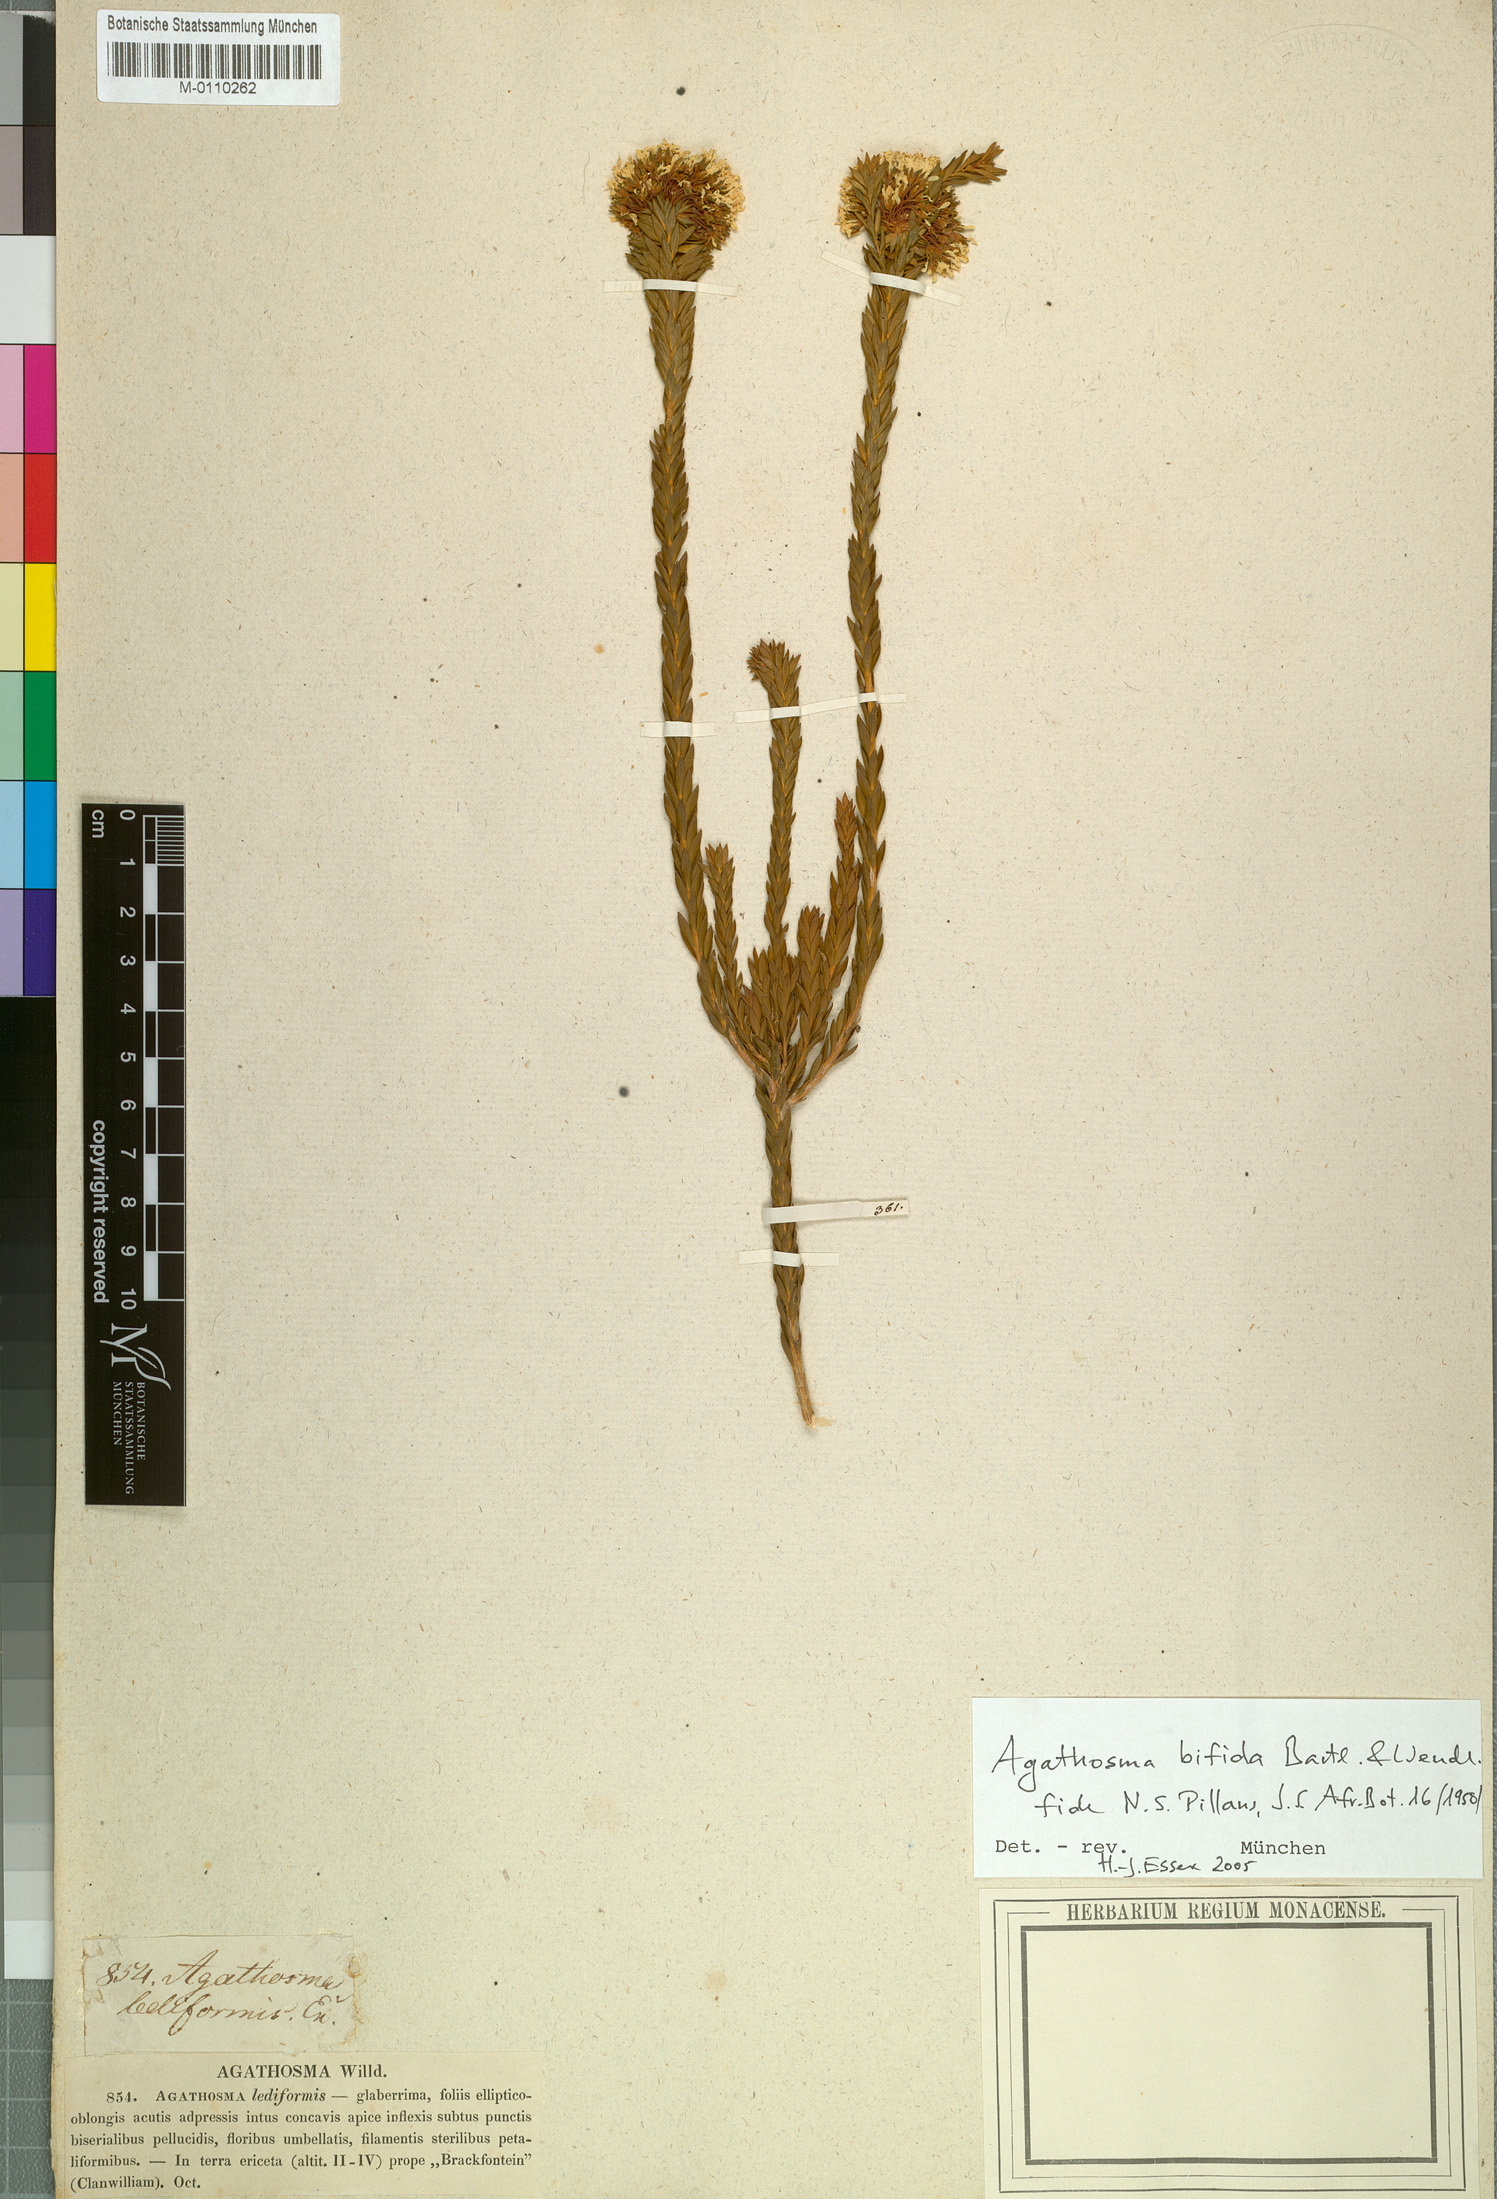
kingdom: Plantae
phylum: Tracheophyta
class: Magnoliopsida
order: Sapindales
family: Rutaceae
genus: Agathosma
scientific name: Agathosma bifida
